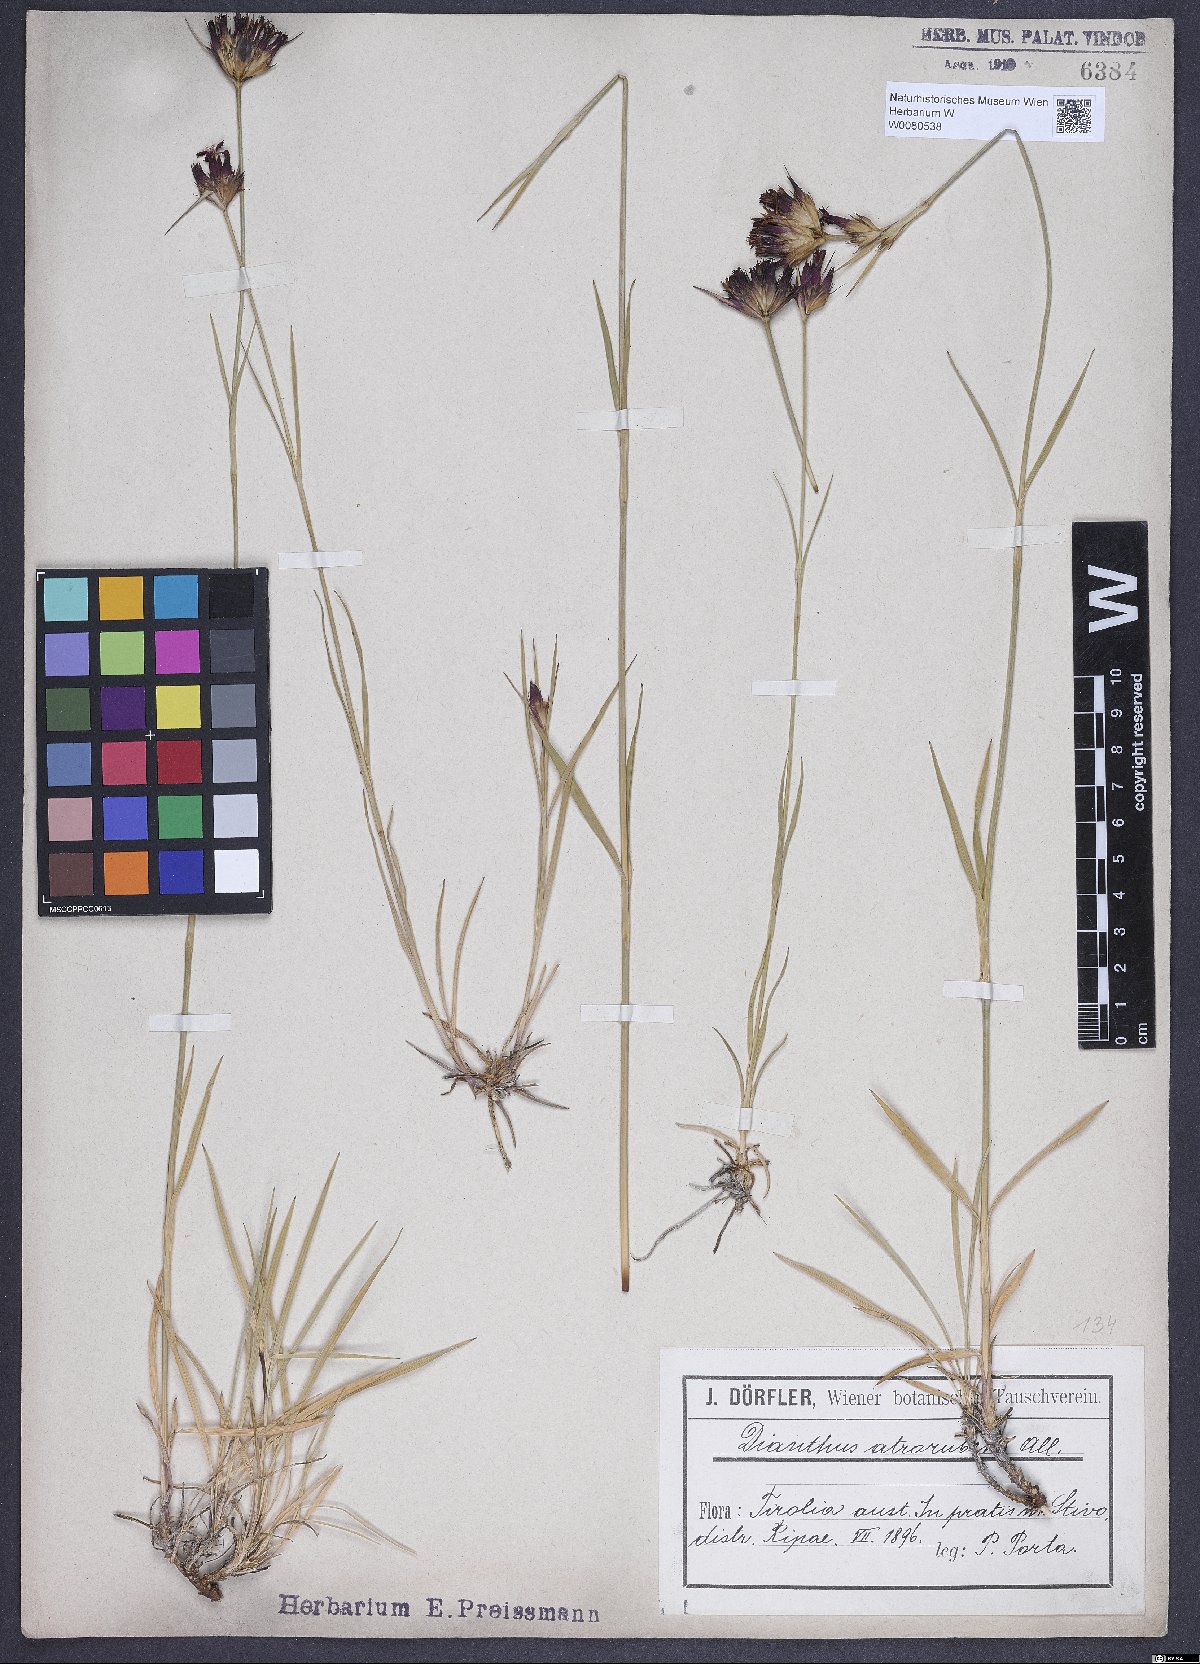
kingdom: Plantae
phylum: Tracheophyta
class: Magnoliopsida
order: Caryophyllales
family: Caryophyllaceae
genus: Dianthus
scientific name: Dianthus carthusianorum
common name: Carthusian pink
